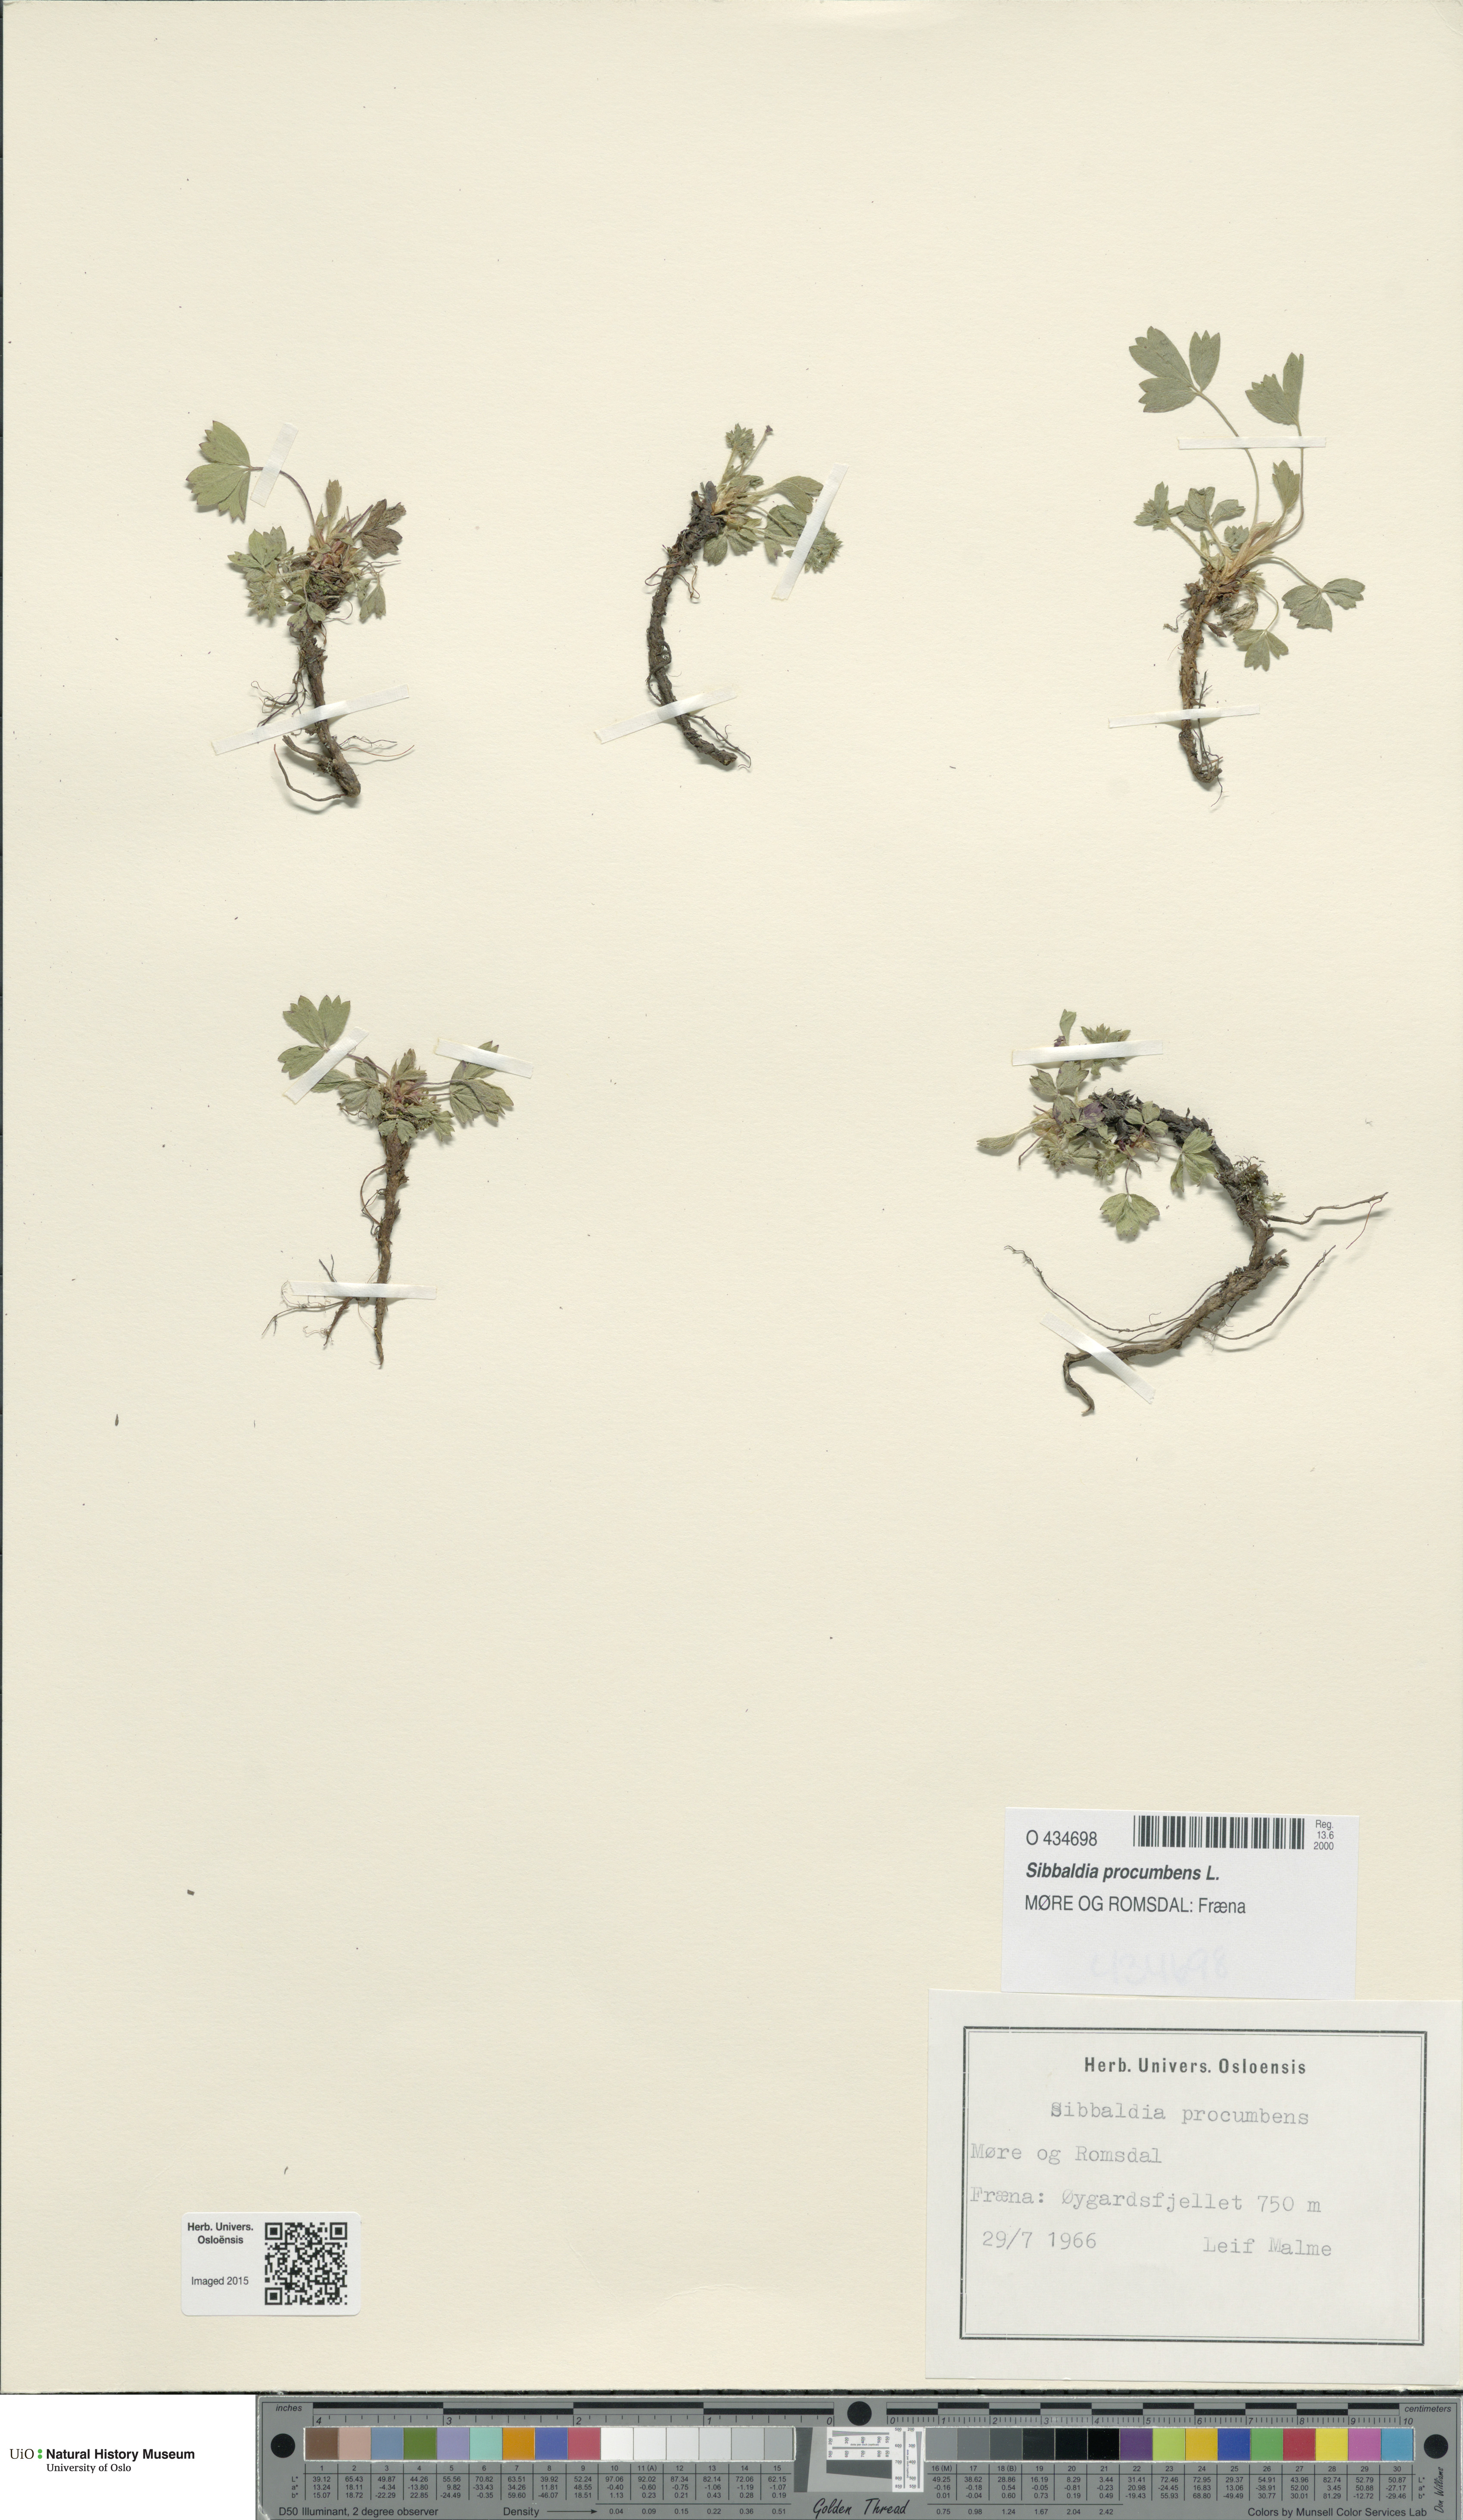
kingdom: Plantae
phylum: Tracheophyta
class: Magnoliopsida
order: Rosales
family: Rosaceae
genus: Sibbaldia
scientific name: Sibbaldia procumbens
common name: Creeping sibbaldia
